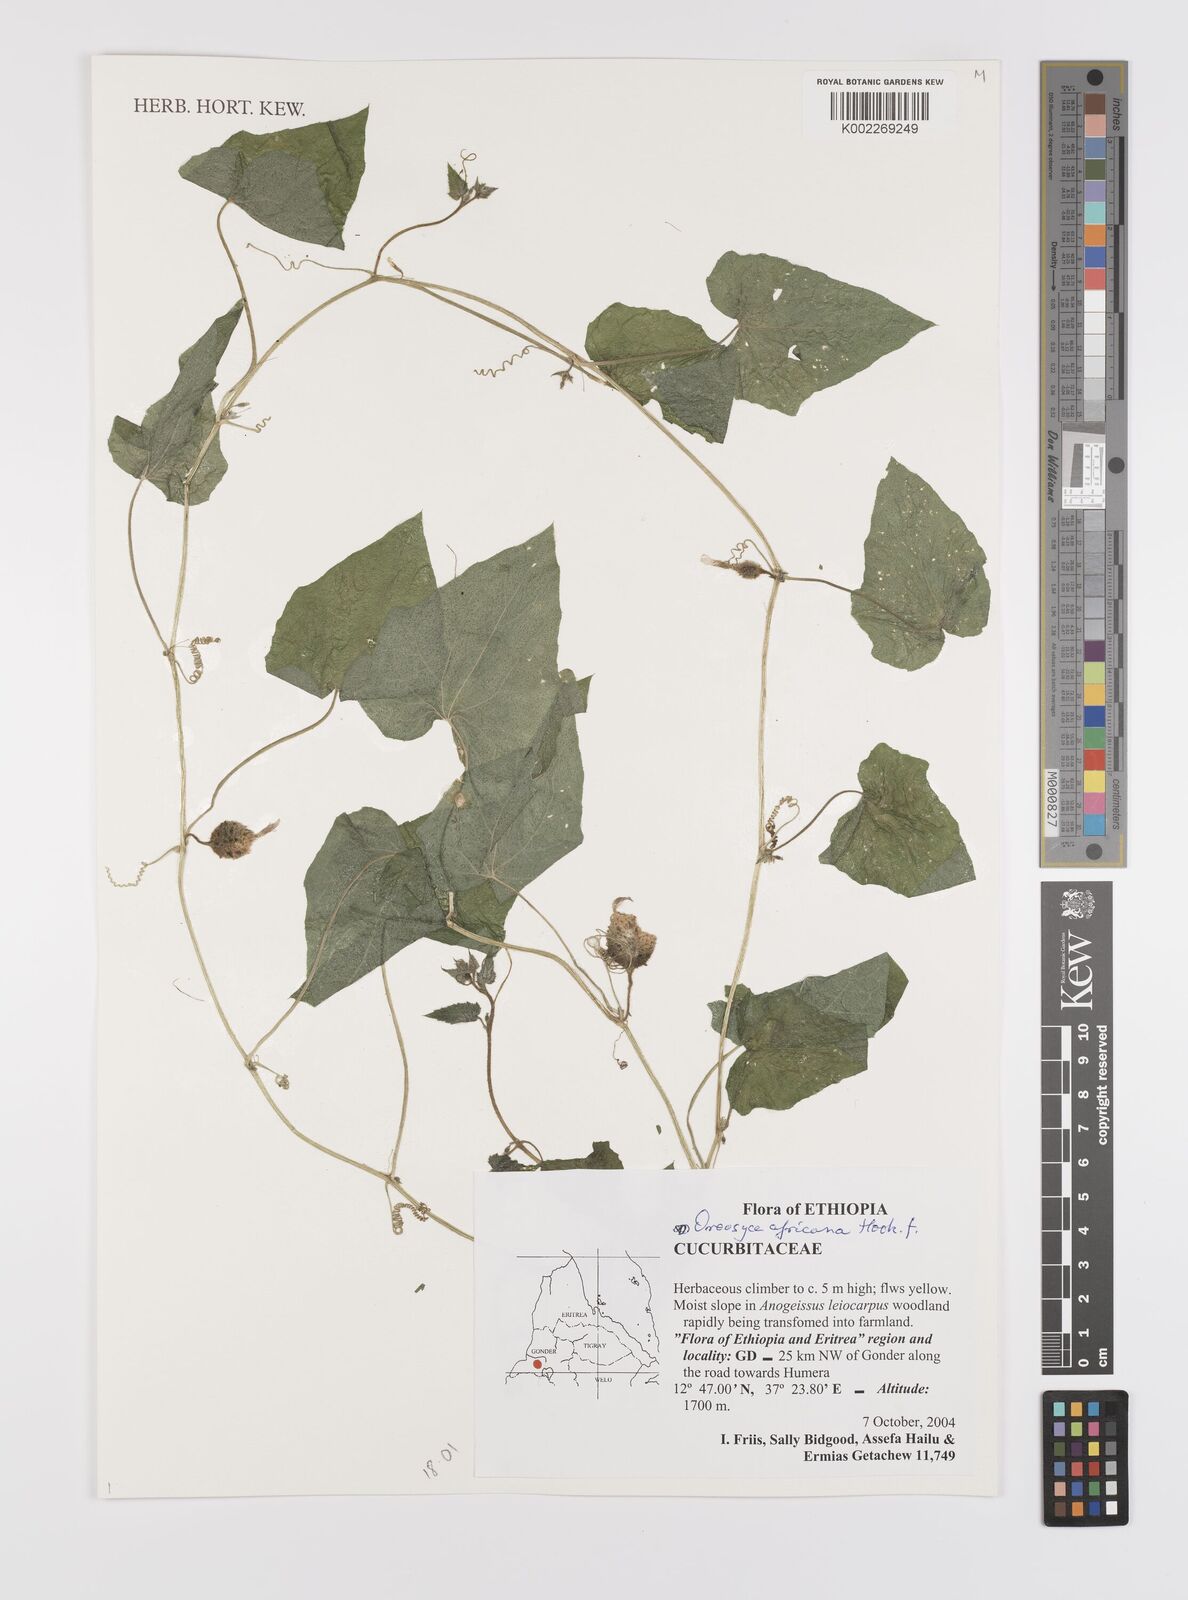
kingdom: Plantae
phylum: Tracheophyta
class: Magnoliopsida
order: Cucurbitales
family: Cucurbitaceae
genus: Cucumis
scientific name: Cucumis oreosyce
